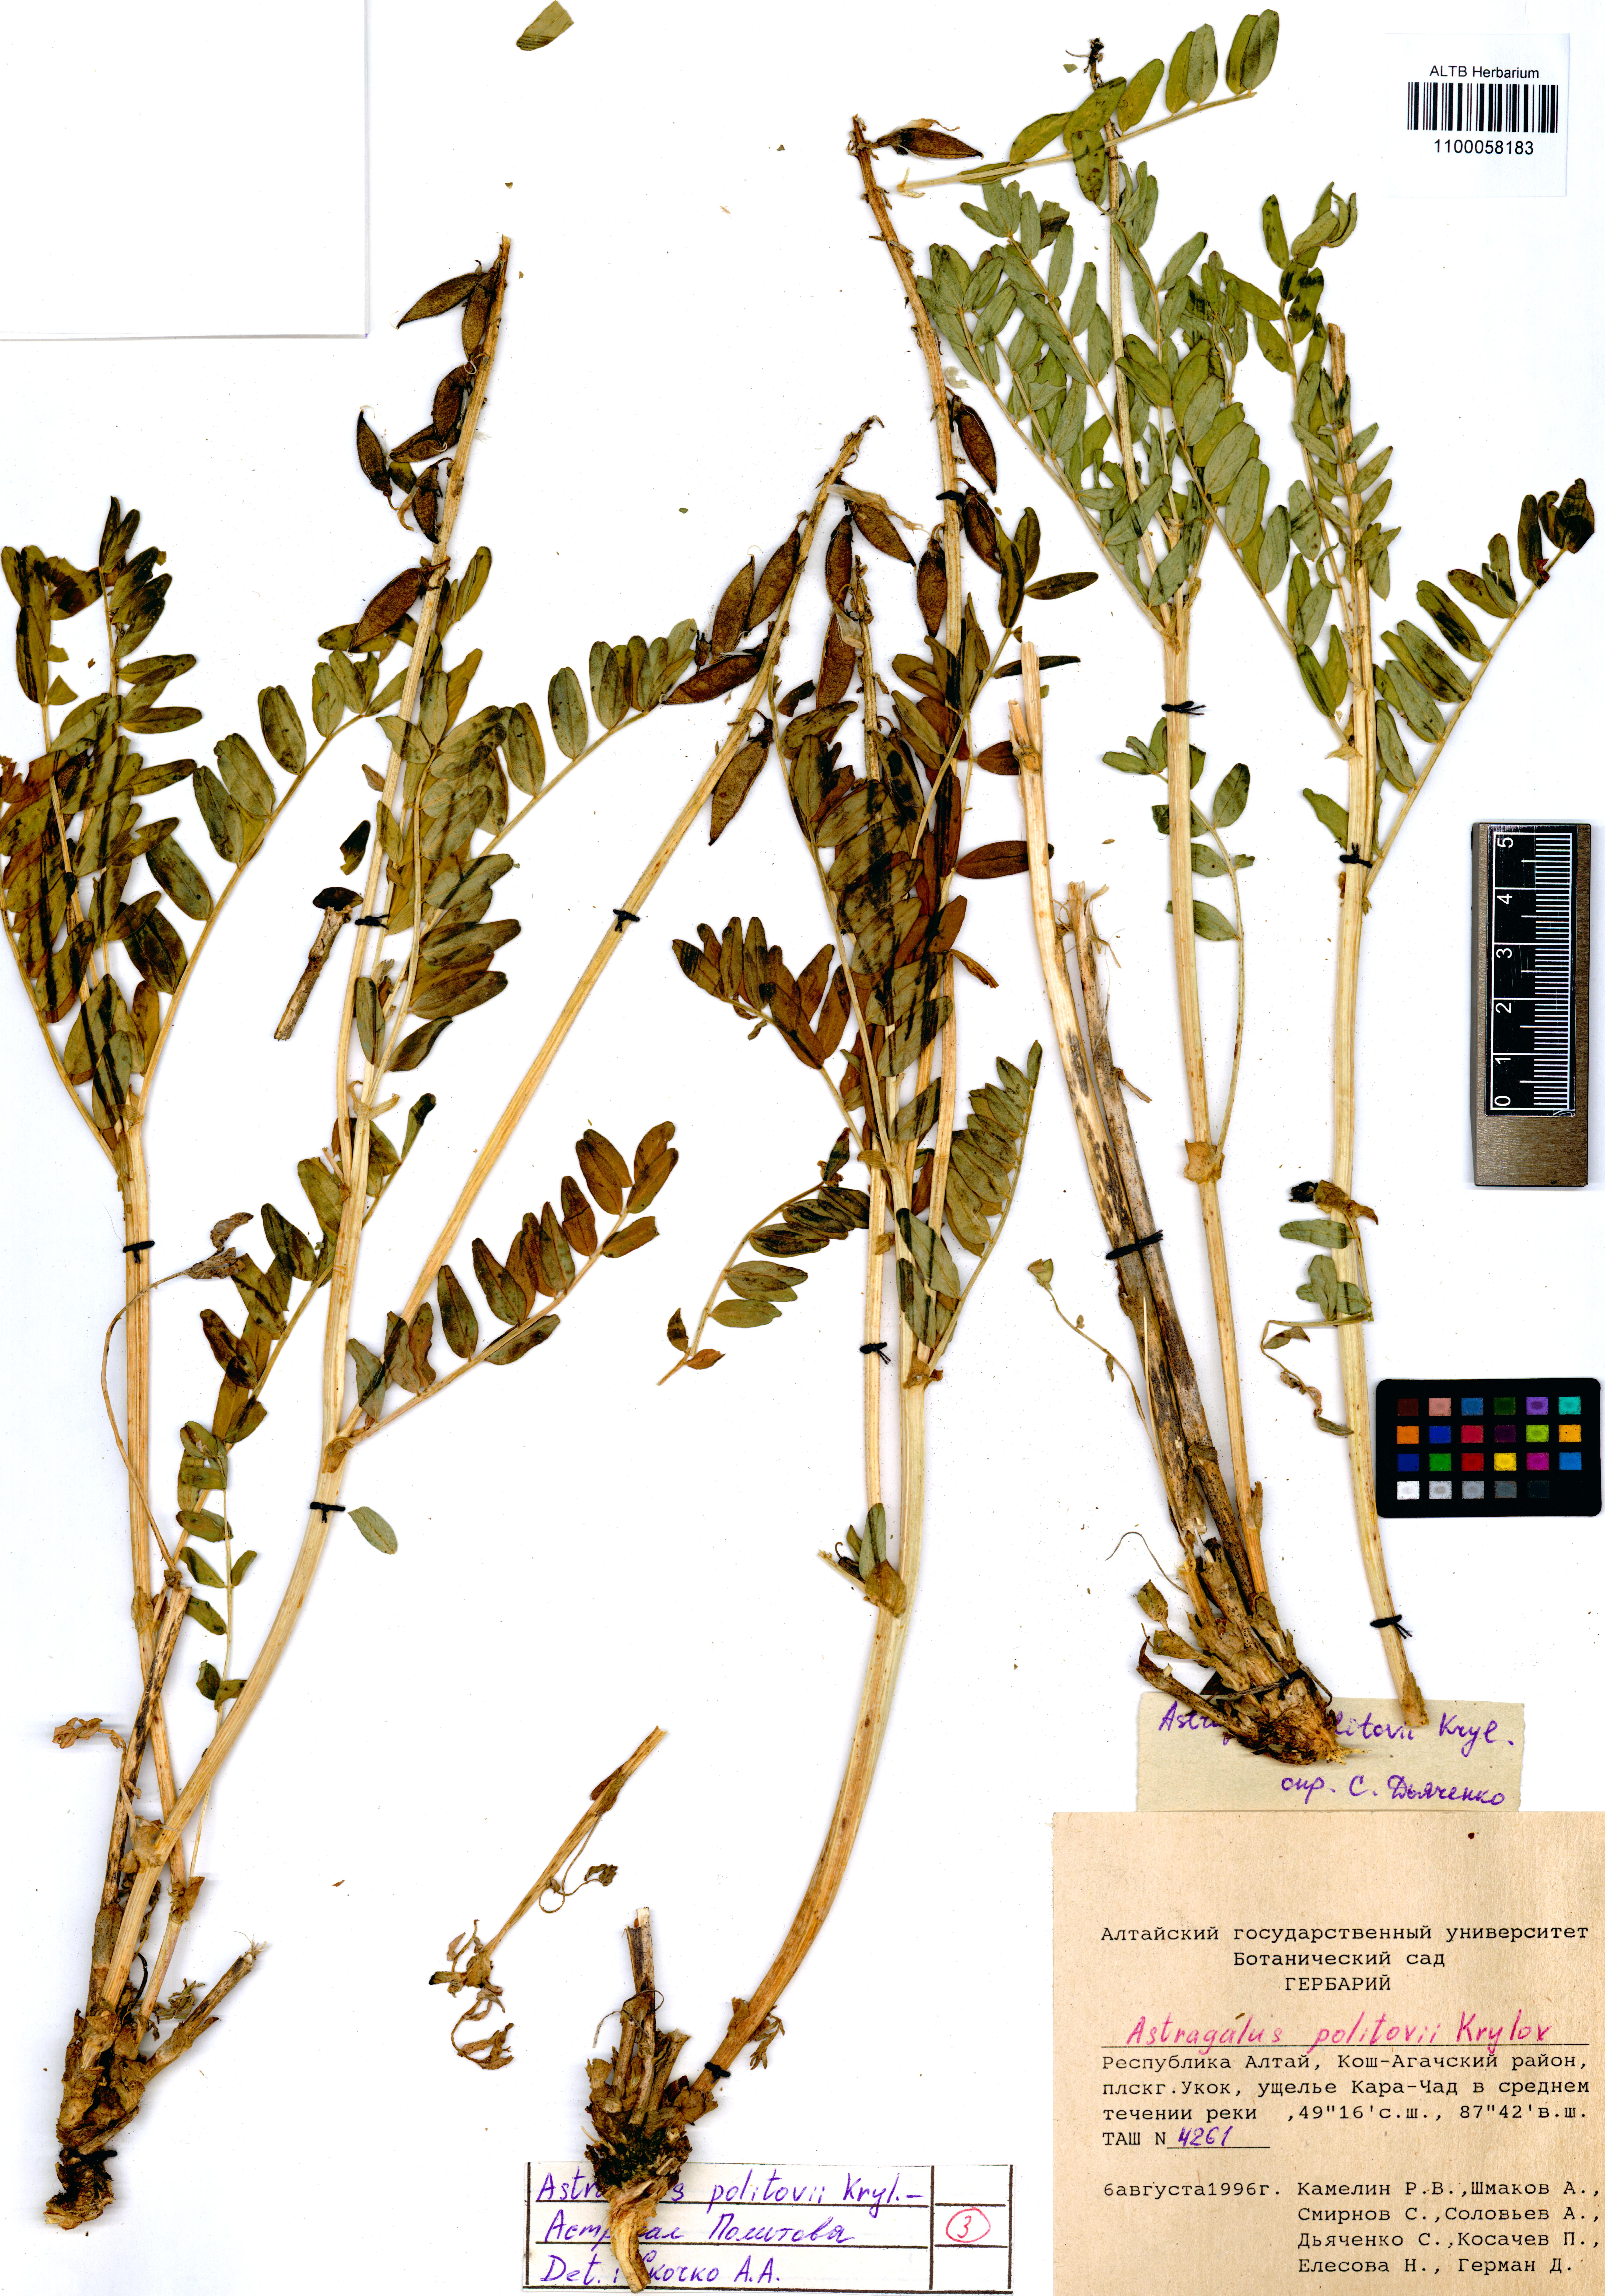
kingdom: Plantae
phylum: Tracheophyta
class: Magnoliopsida
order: Fabales
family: Fabaceae
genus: Astragalus
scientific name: Astragalus politovii
